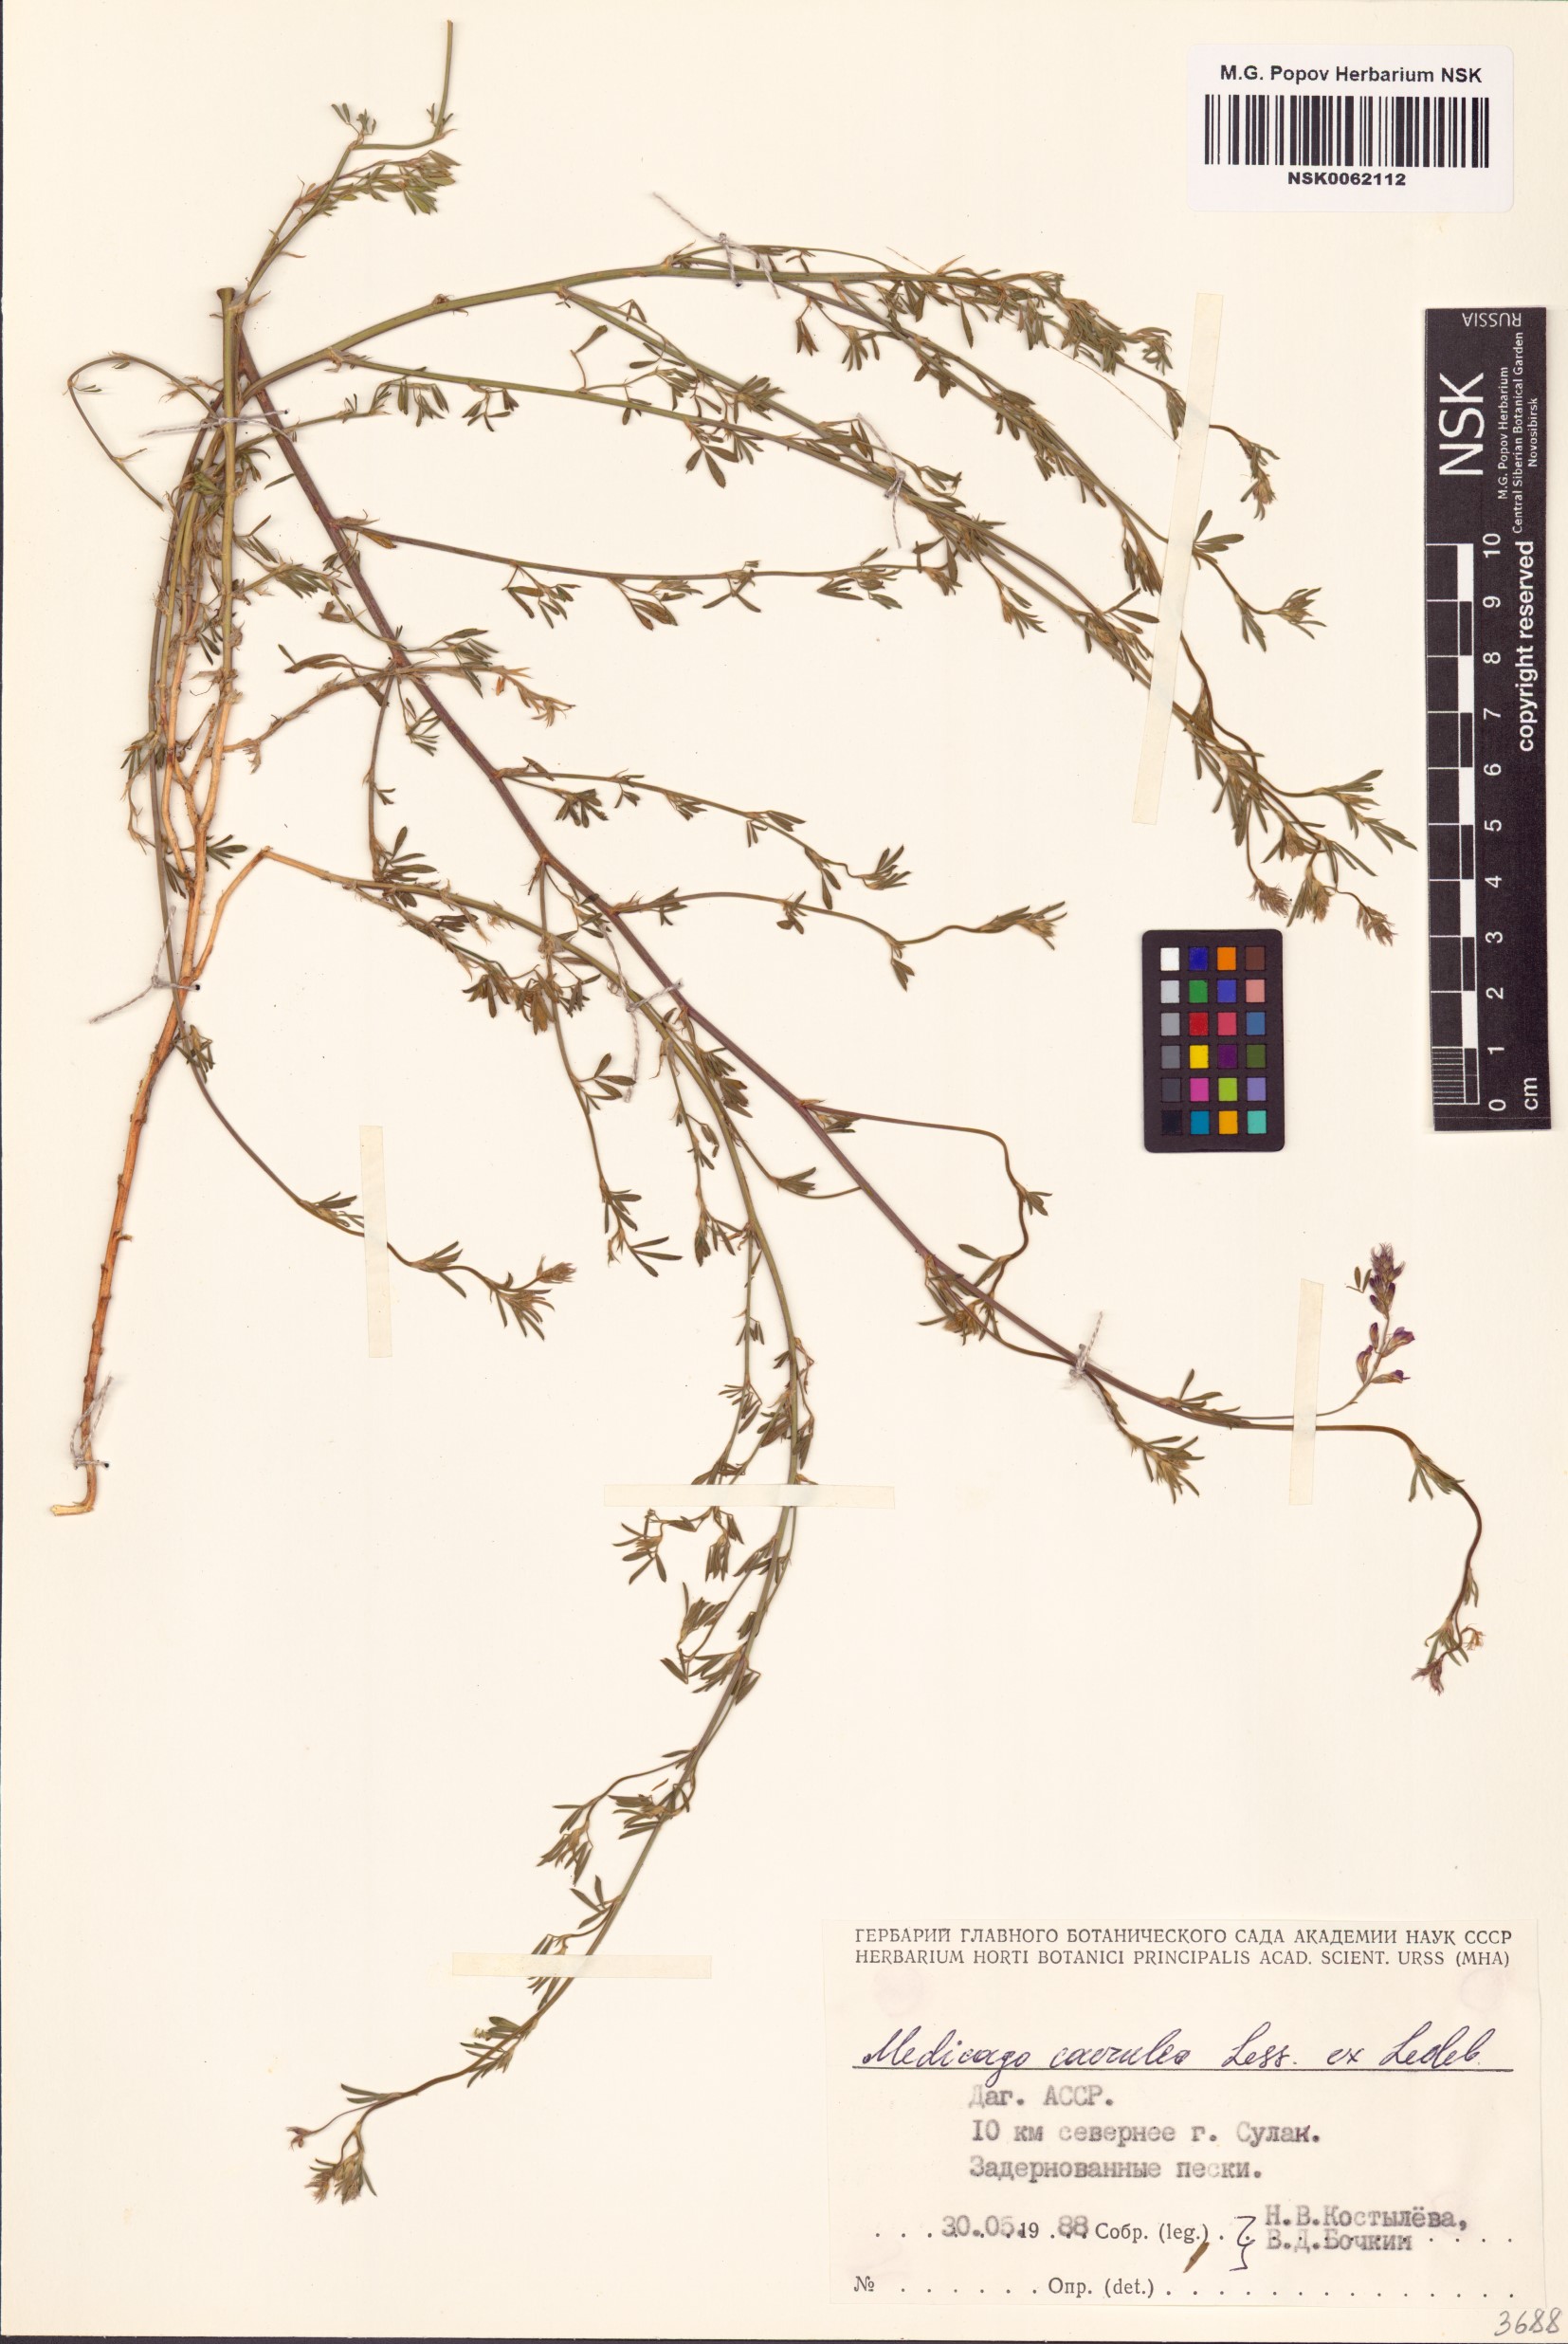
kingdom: Plantae
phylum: Tracheophyta
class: Magnoliopsida
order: Fabales
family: Fabaceae
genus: Medicago
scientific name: Medicago sativa
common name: Alfalfa
